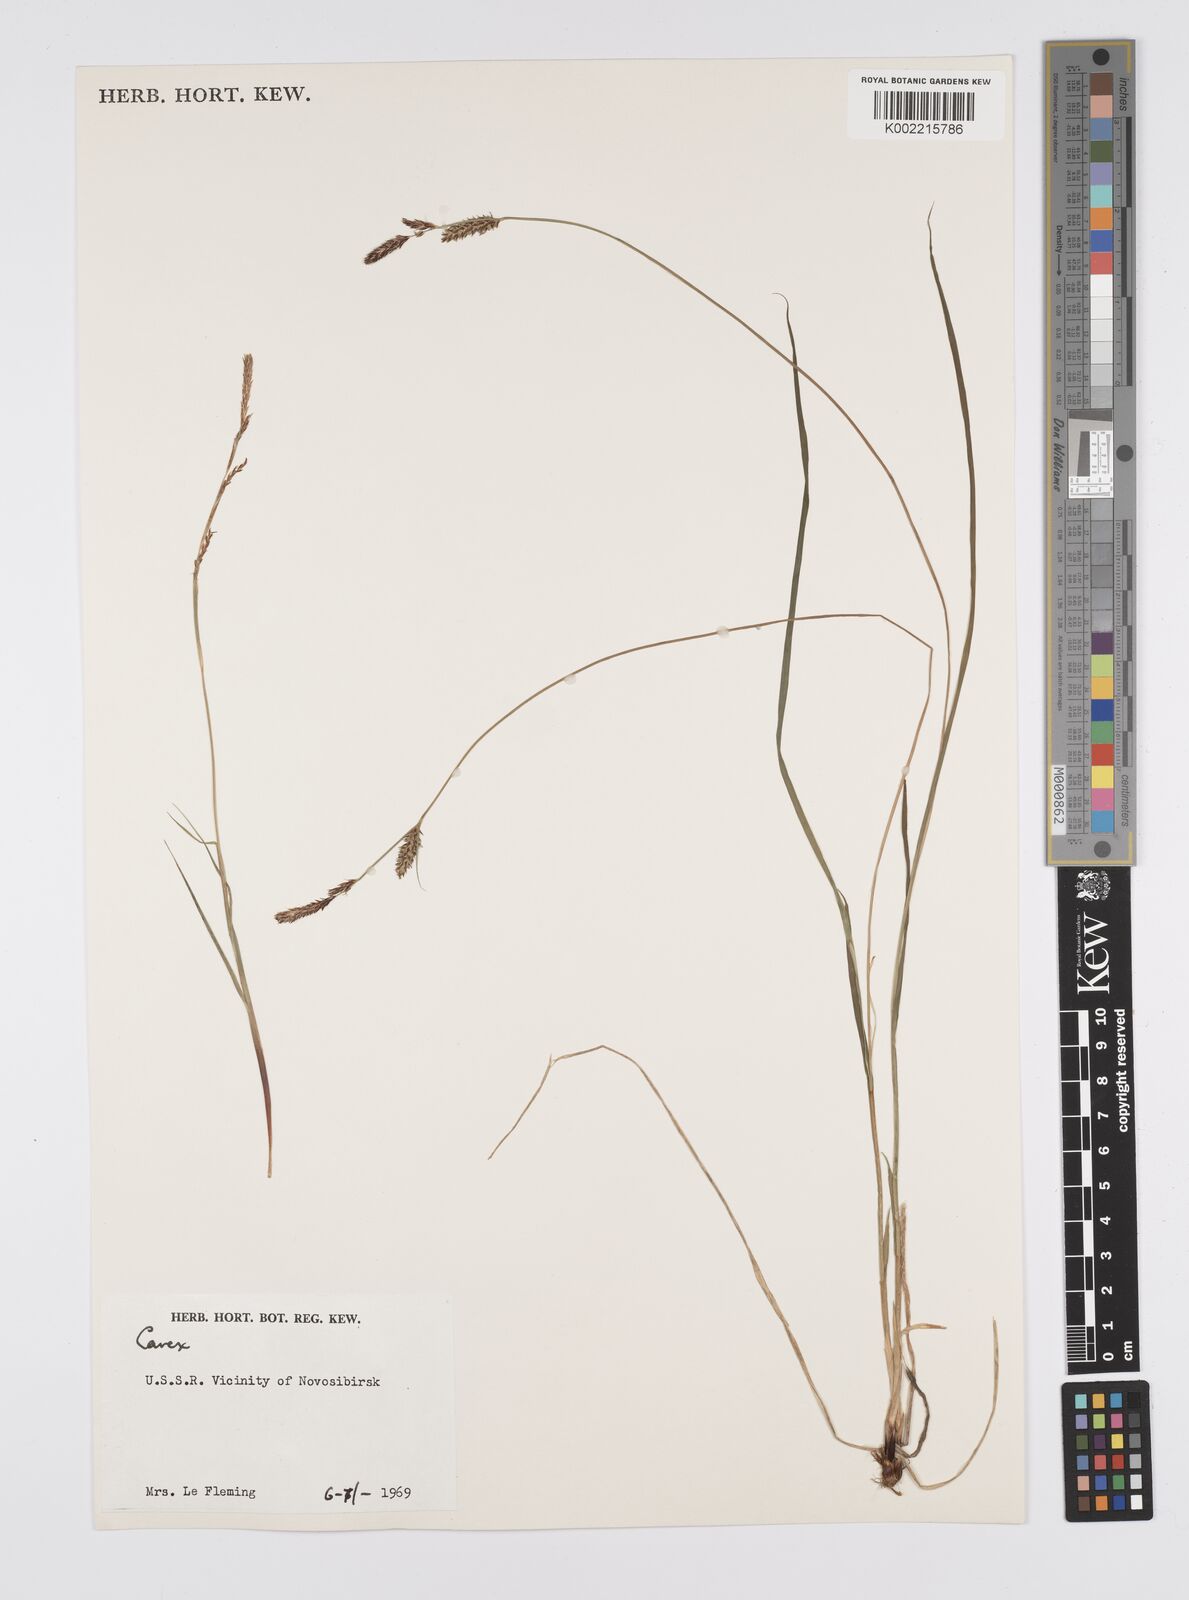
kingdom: Plantae
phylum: Tracheophyta
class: Liliopsida
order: Poales
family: Cyperaceae
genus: Carex
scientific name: Carex
